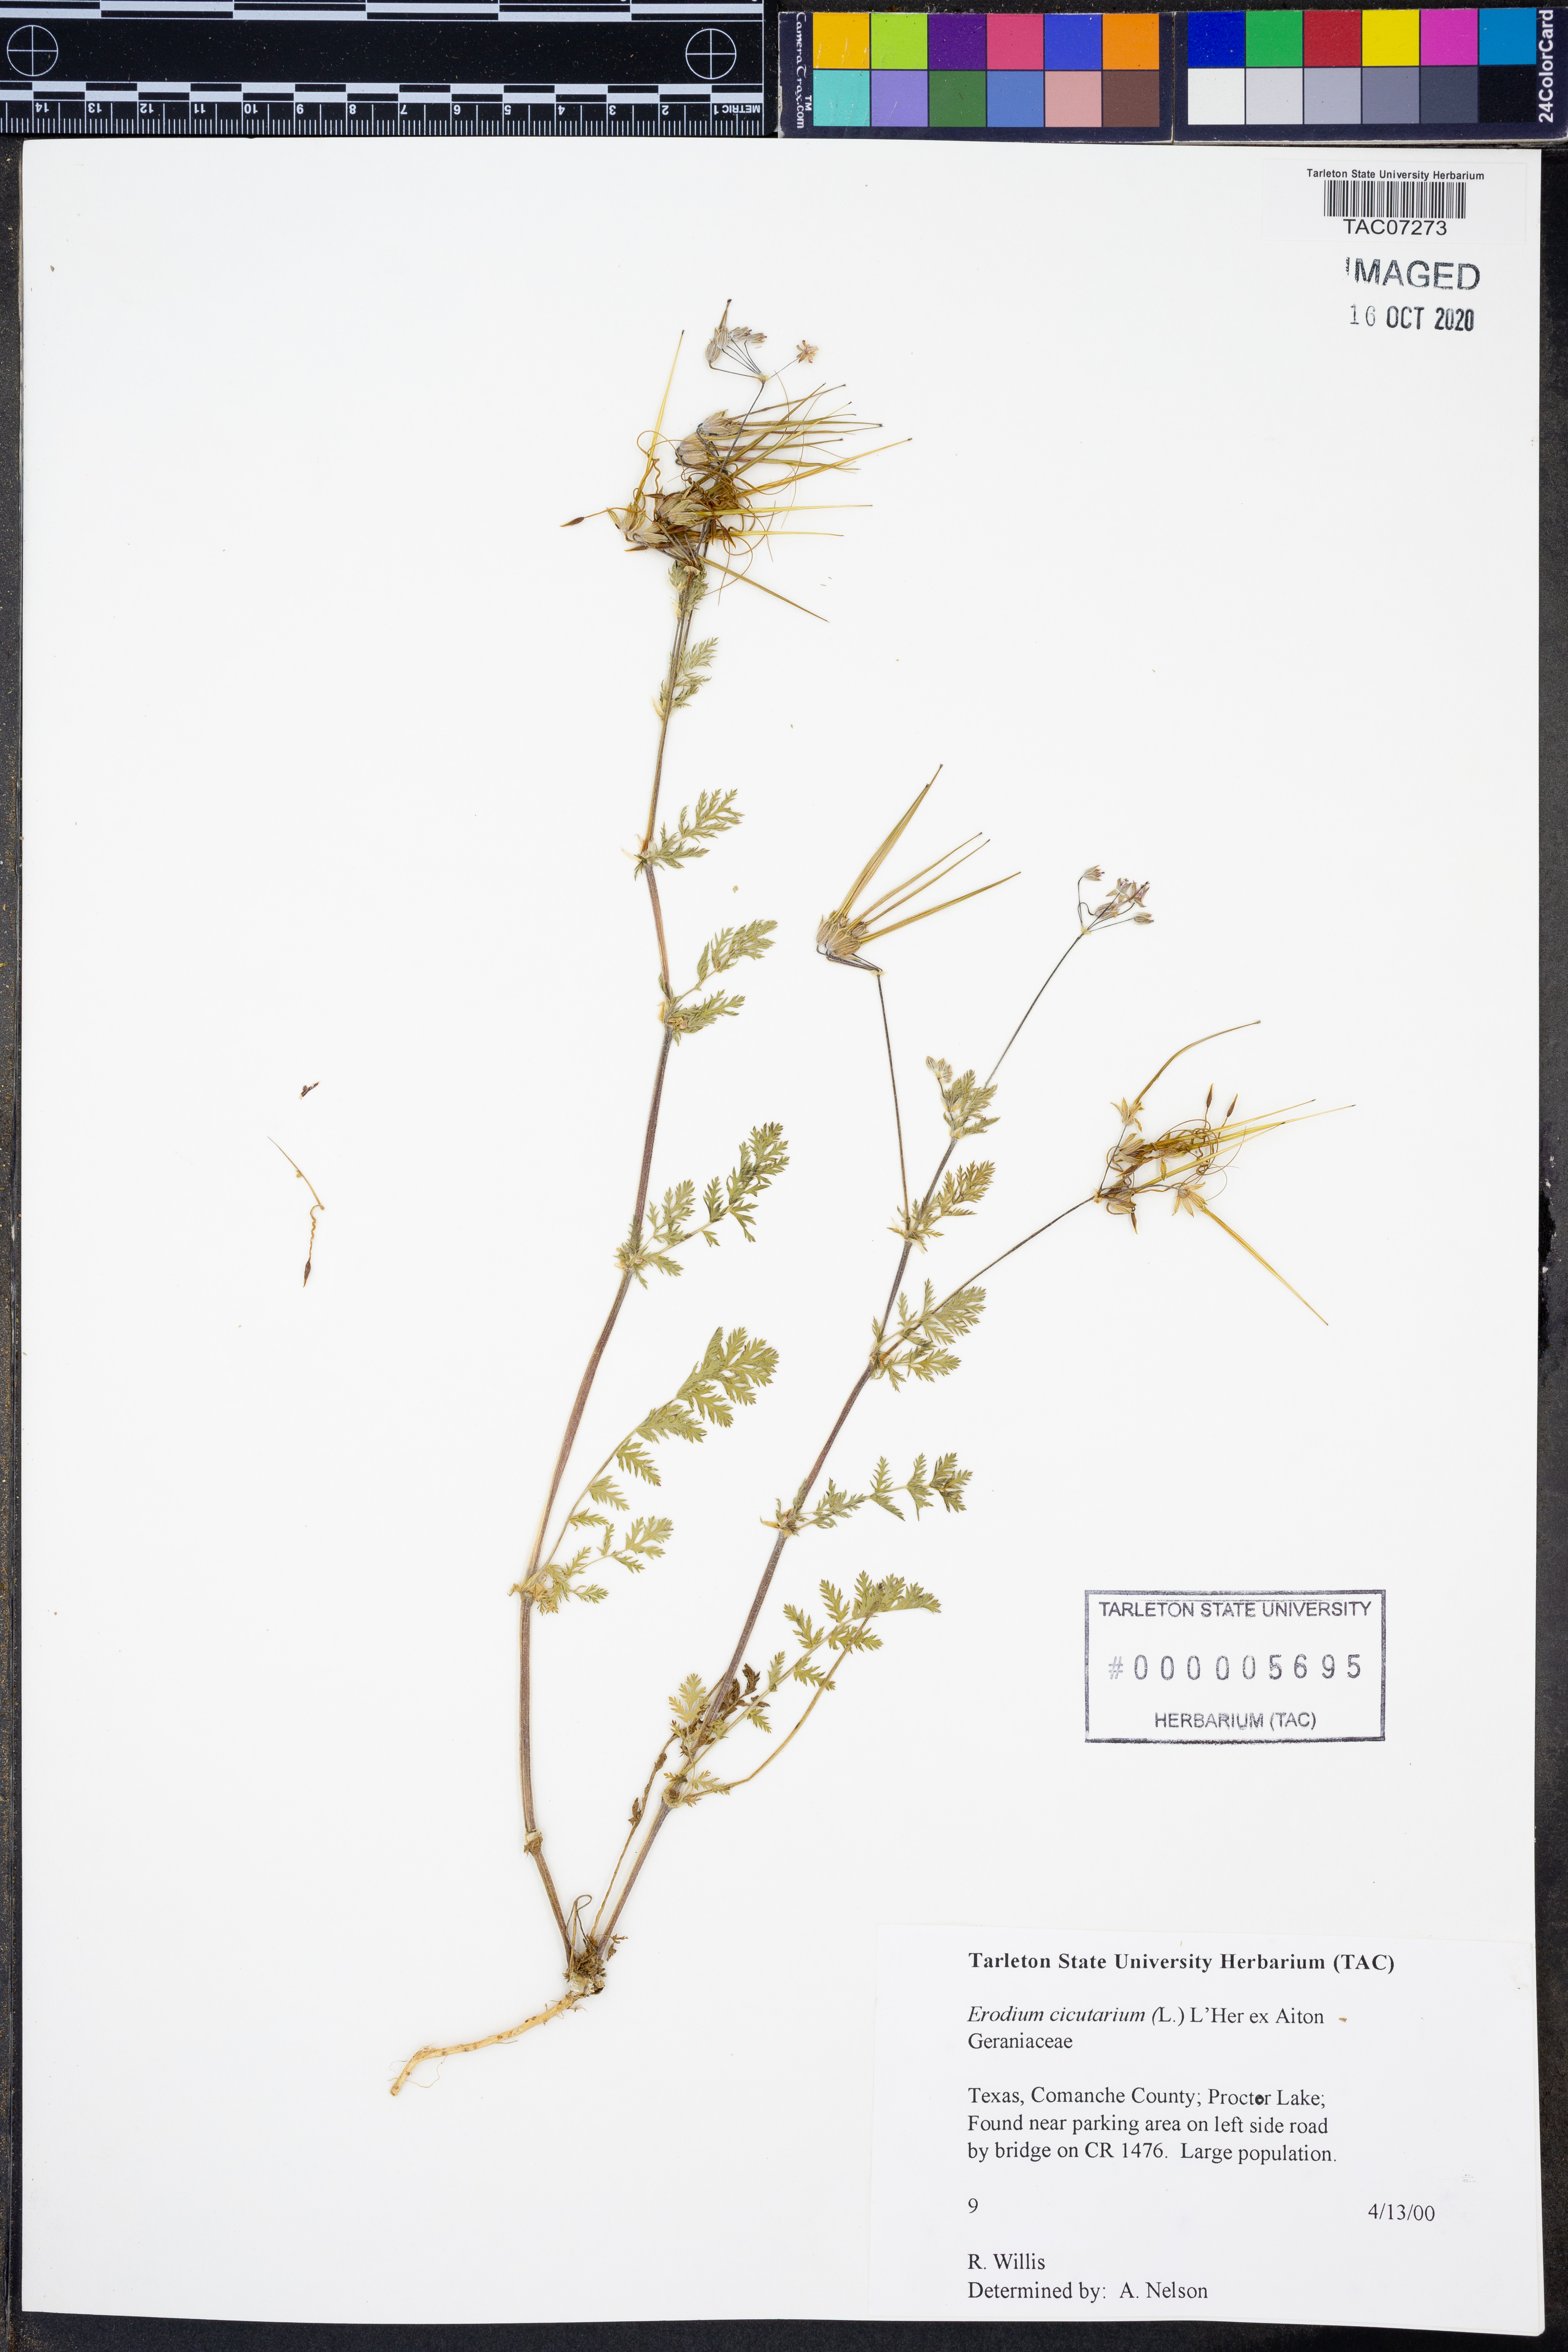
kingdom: Plantae
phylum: Tracheophyta
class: Magnoliopsida
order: Geraniales
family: Geraniaceae
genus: Erodium
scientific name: Erodium cicutarium
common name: Common stork's-bill
